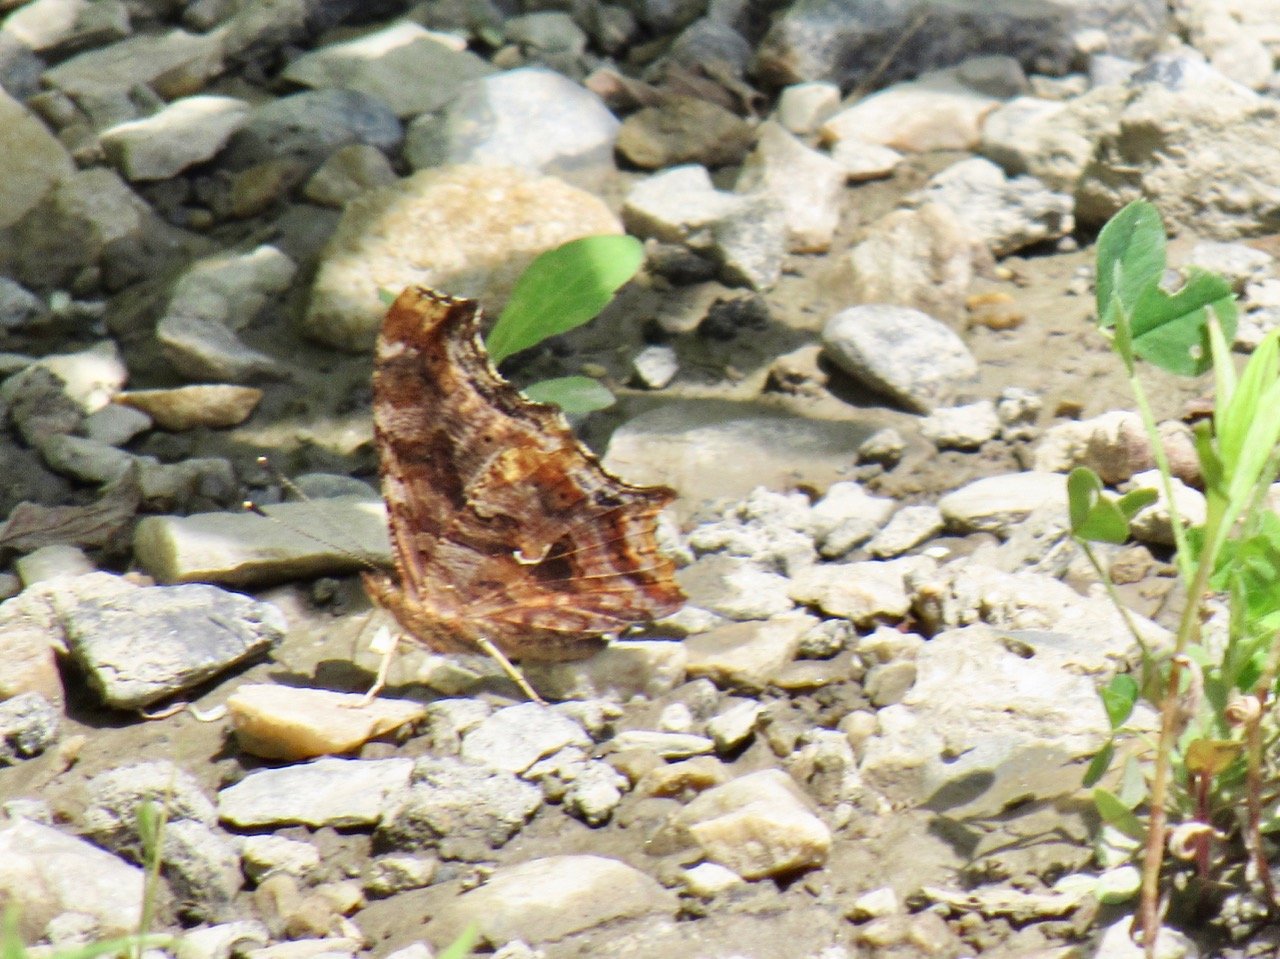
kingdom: Animalia
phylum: Arthropoda
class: Insecta
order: Lepidoptera
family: Nymphalidae
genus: Polygonia
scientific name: Polygonia comma
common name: Eastern Comma
